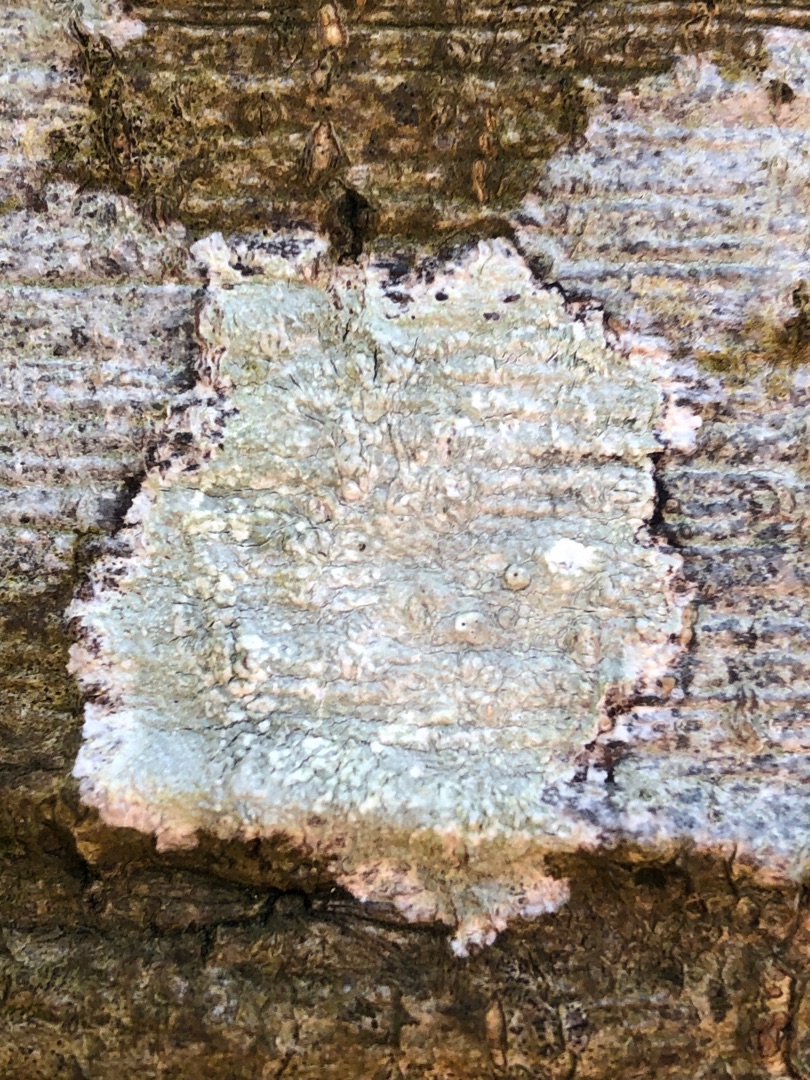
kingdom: Fungi
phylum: Ascomycota
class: Lecanoromycetes
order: Pertusariales
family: Pertusariaceae
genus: Pertusaria
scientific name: Pertusaria leioplaca
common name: Tynd prikvortelav
